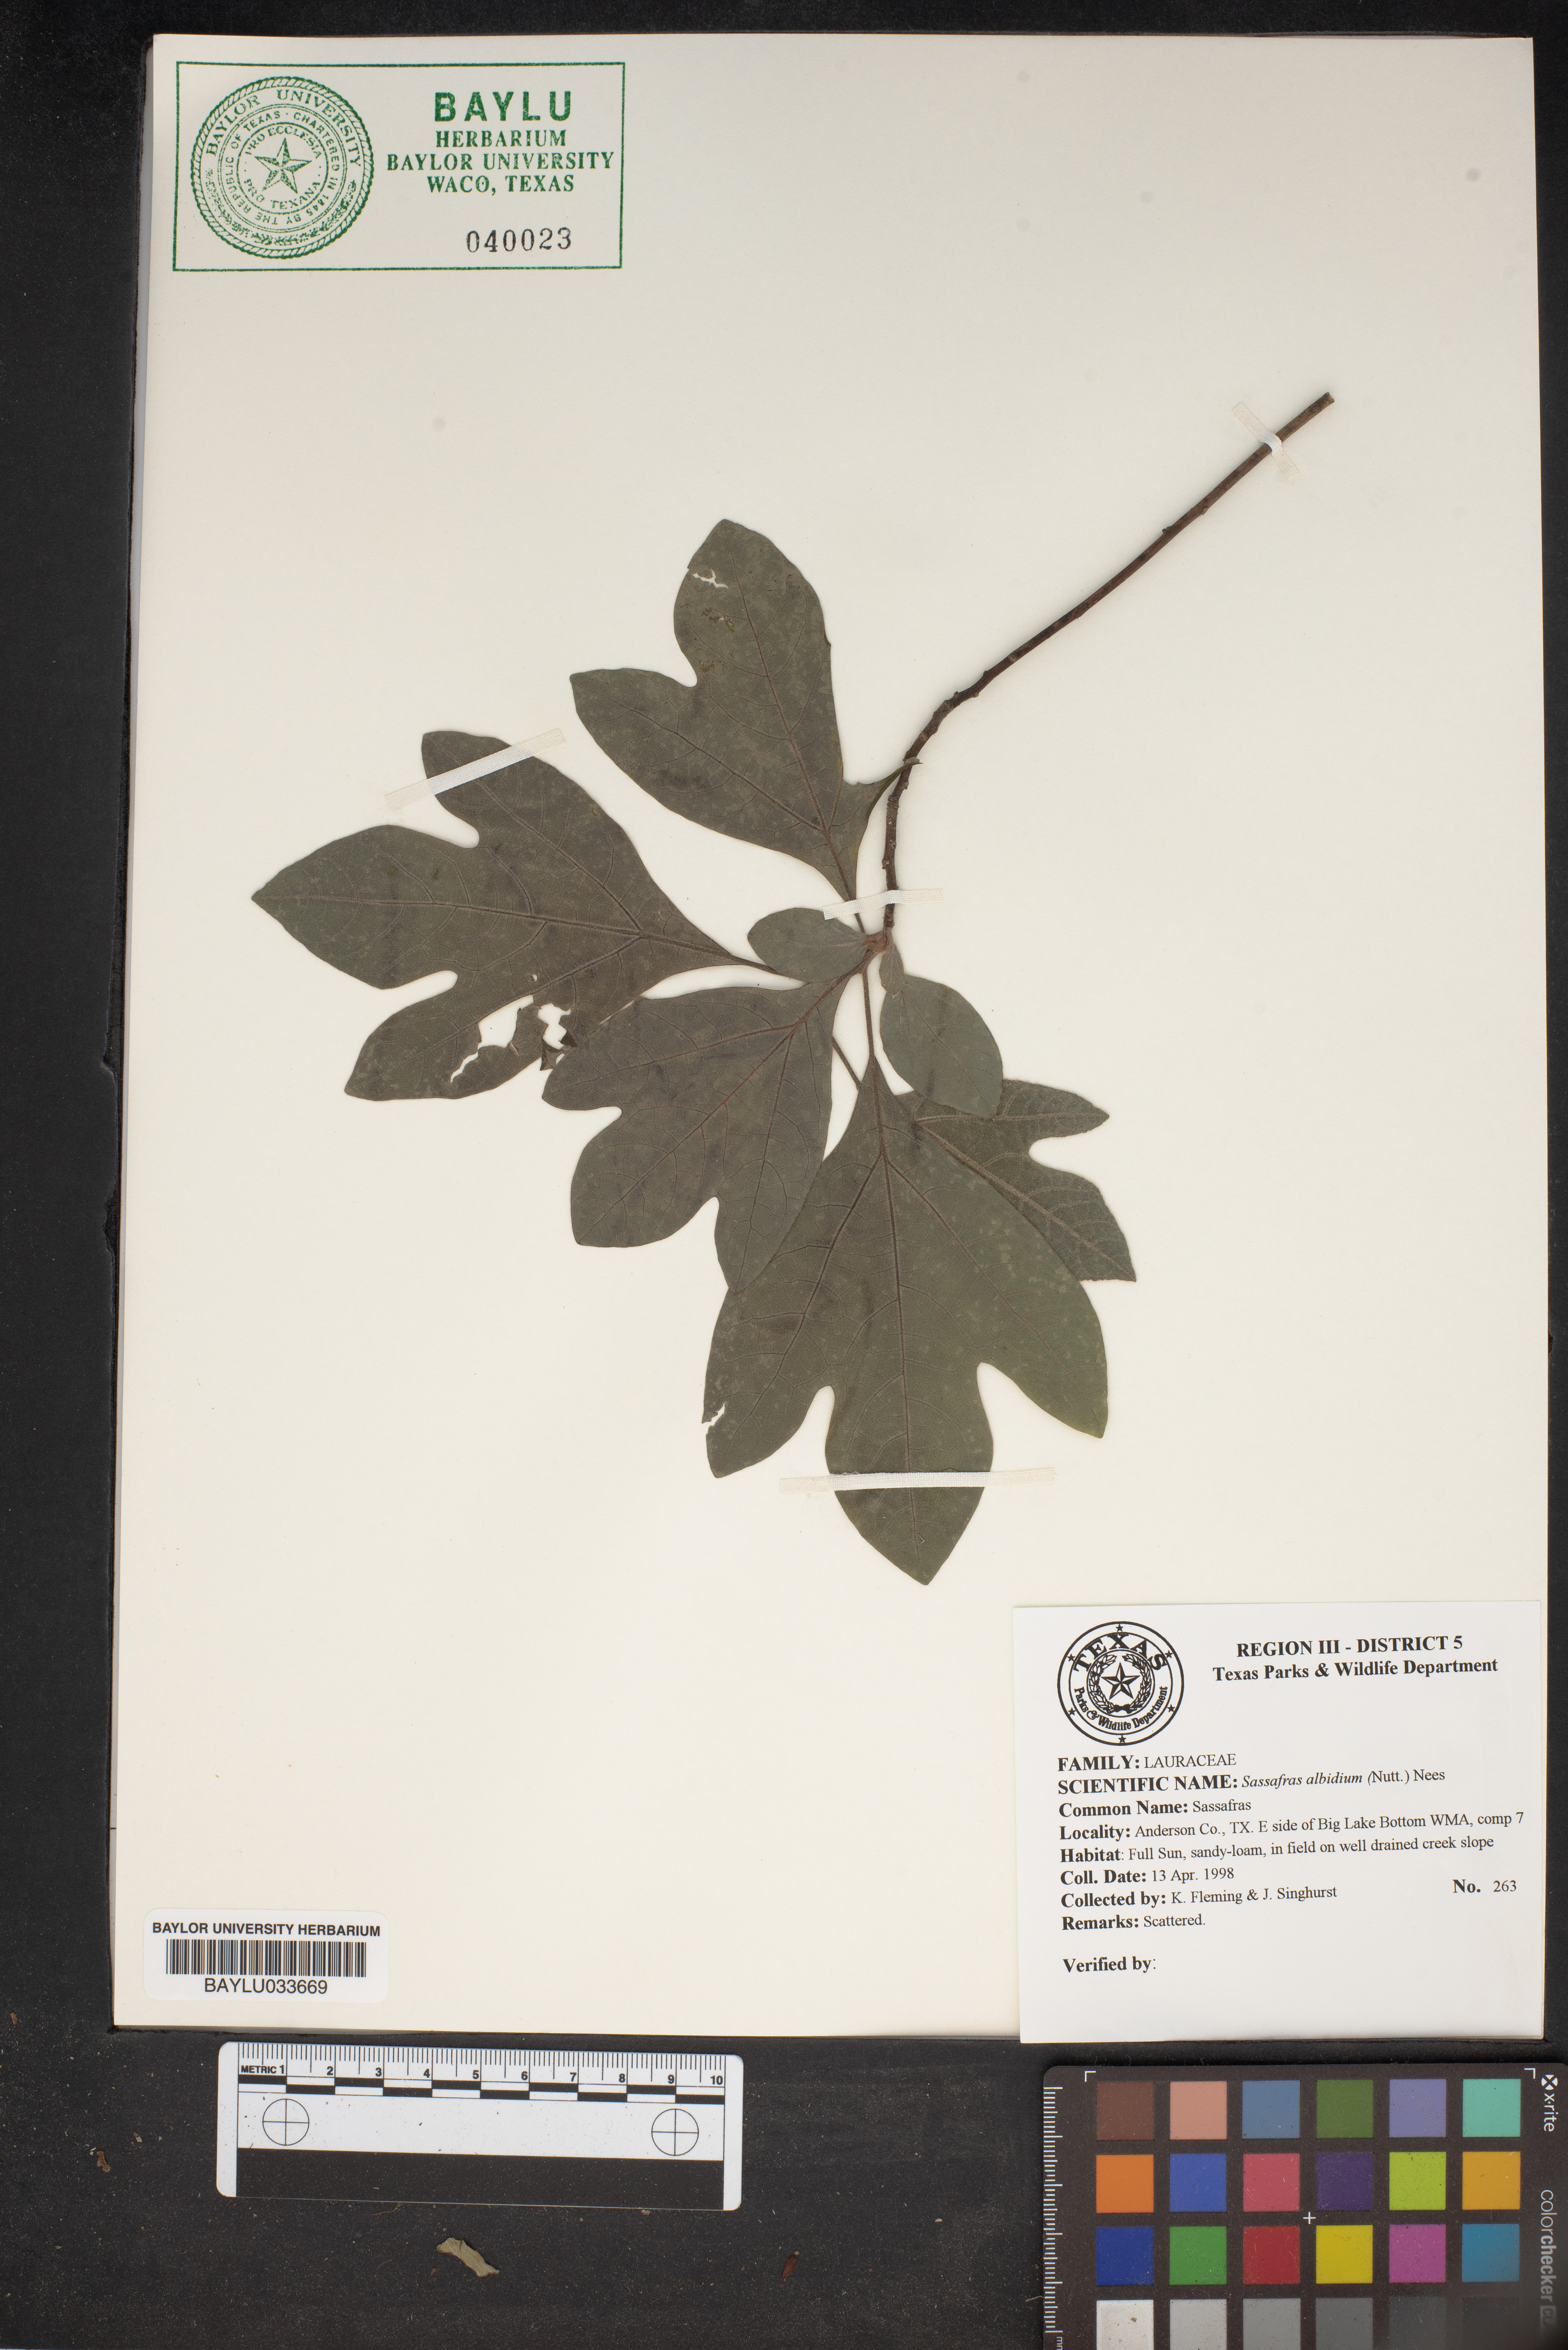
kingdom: Plantae
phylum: Tracheophyta
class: Magnoliopsida
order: Laurales
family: Lauraceae
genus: Sassafras
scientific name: Sassafras albidum
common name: Sassafras
